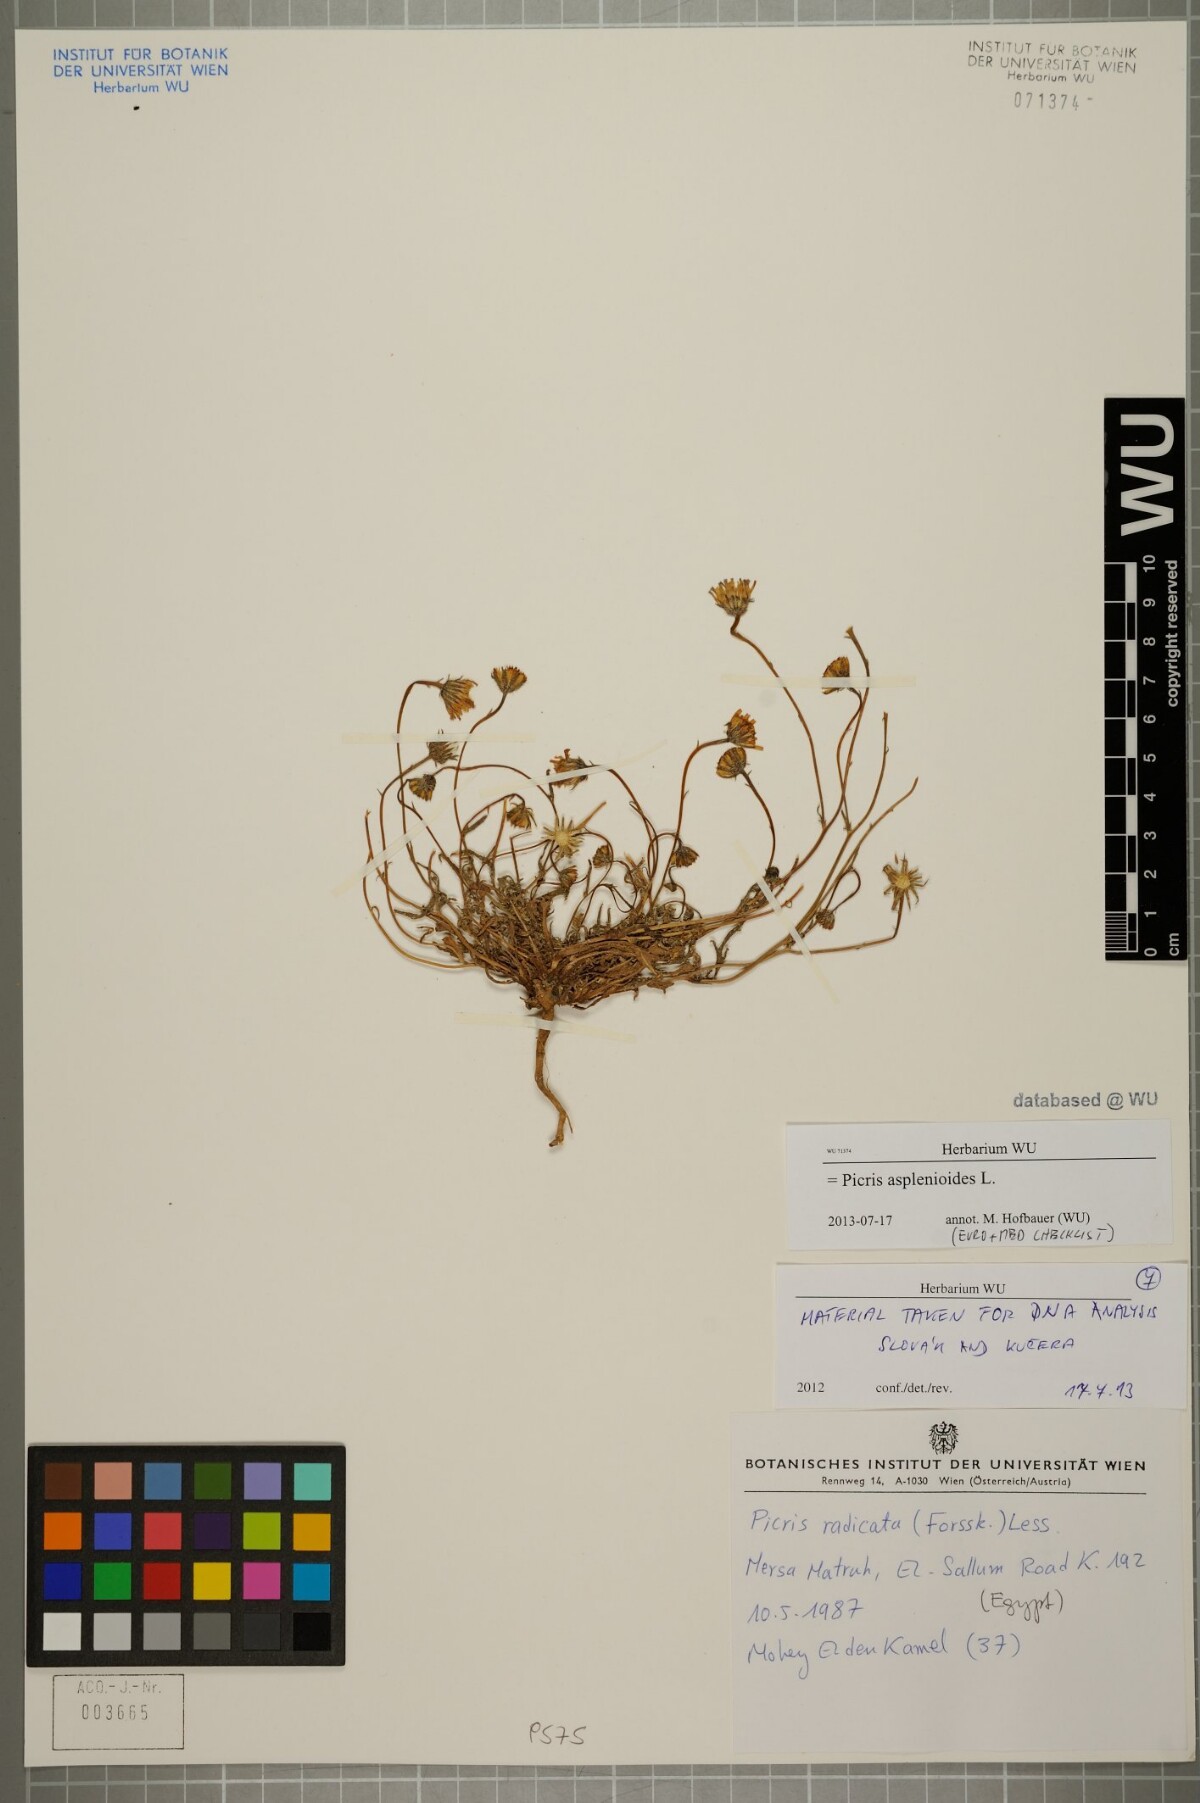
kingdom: Plantae
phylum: Tracheophyta
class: Magnoliopsida
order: Asterales
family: Asteraceae
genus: Picris
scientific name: Picris asplenioides
